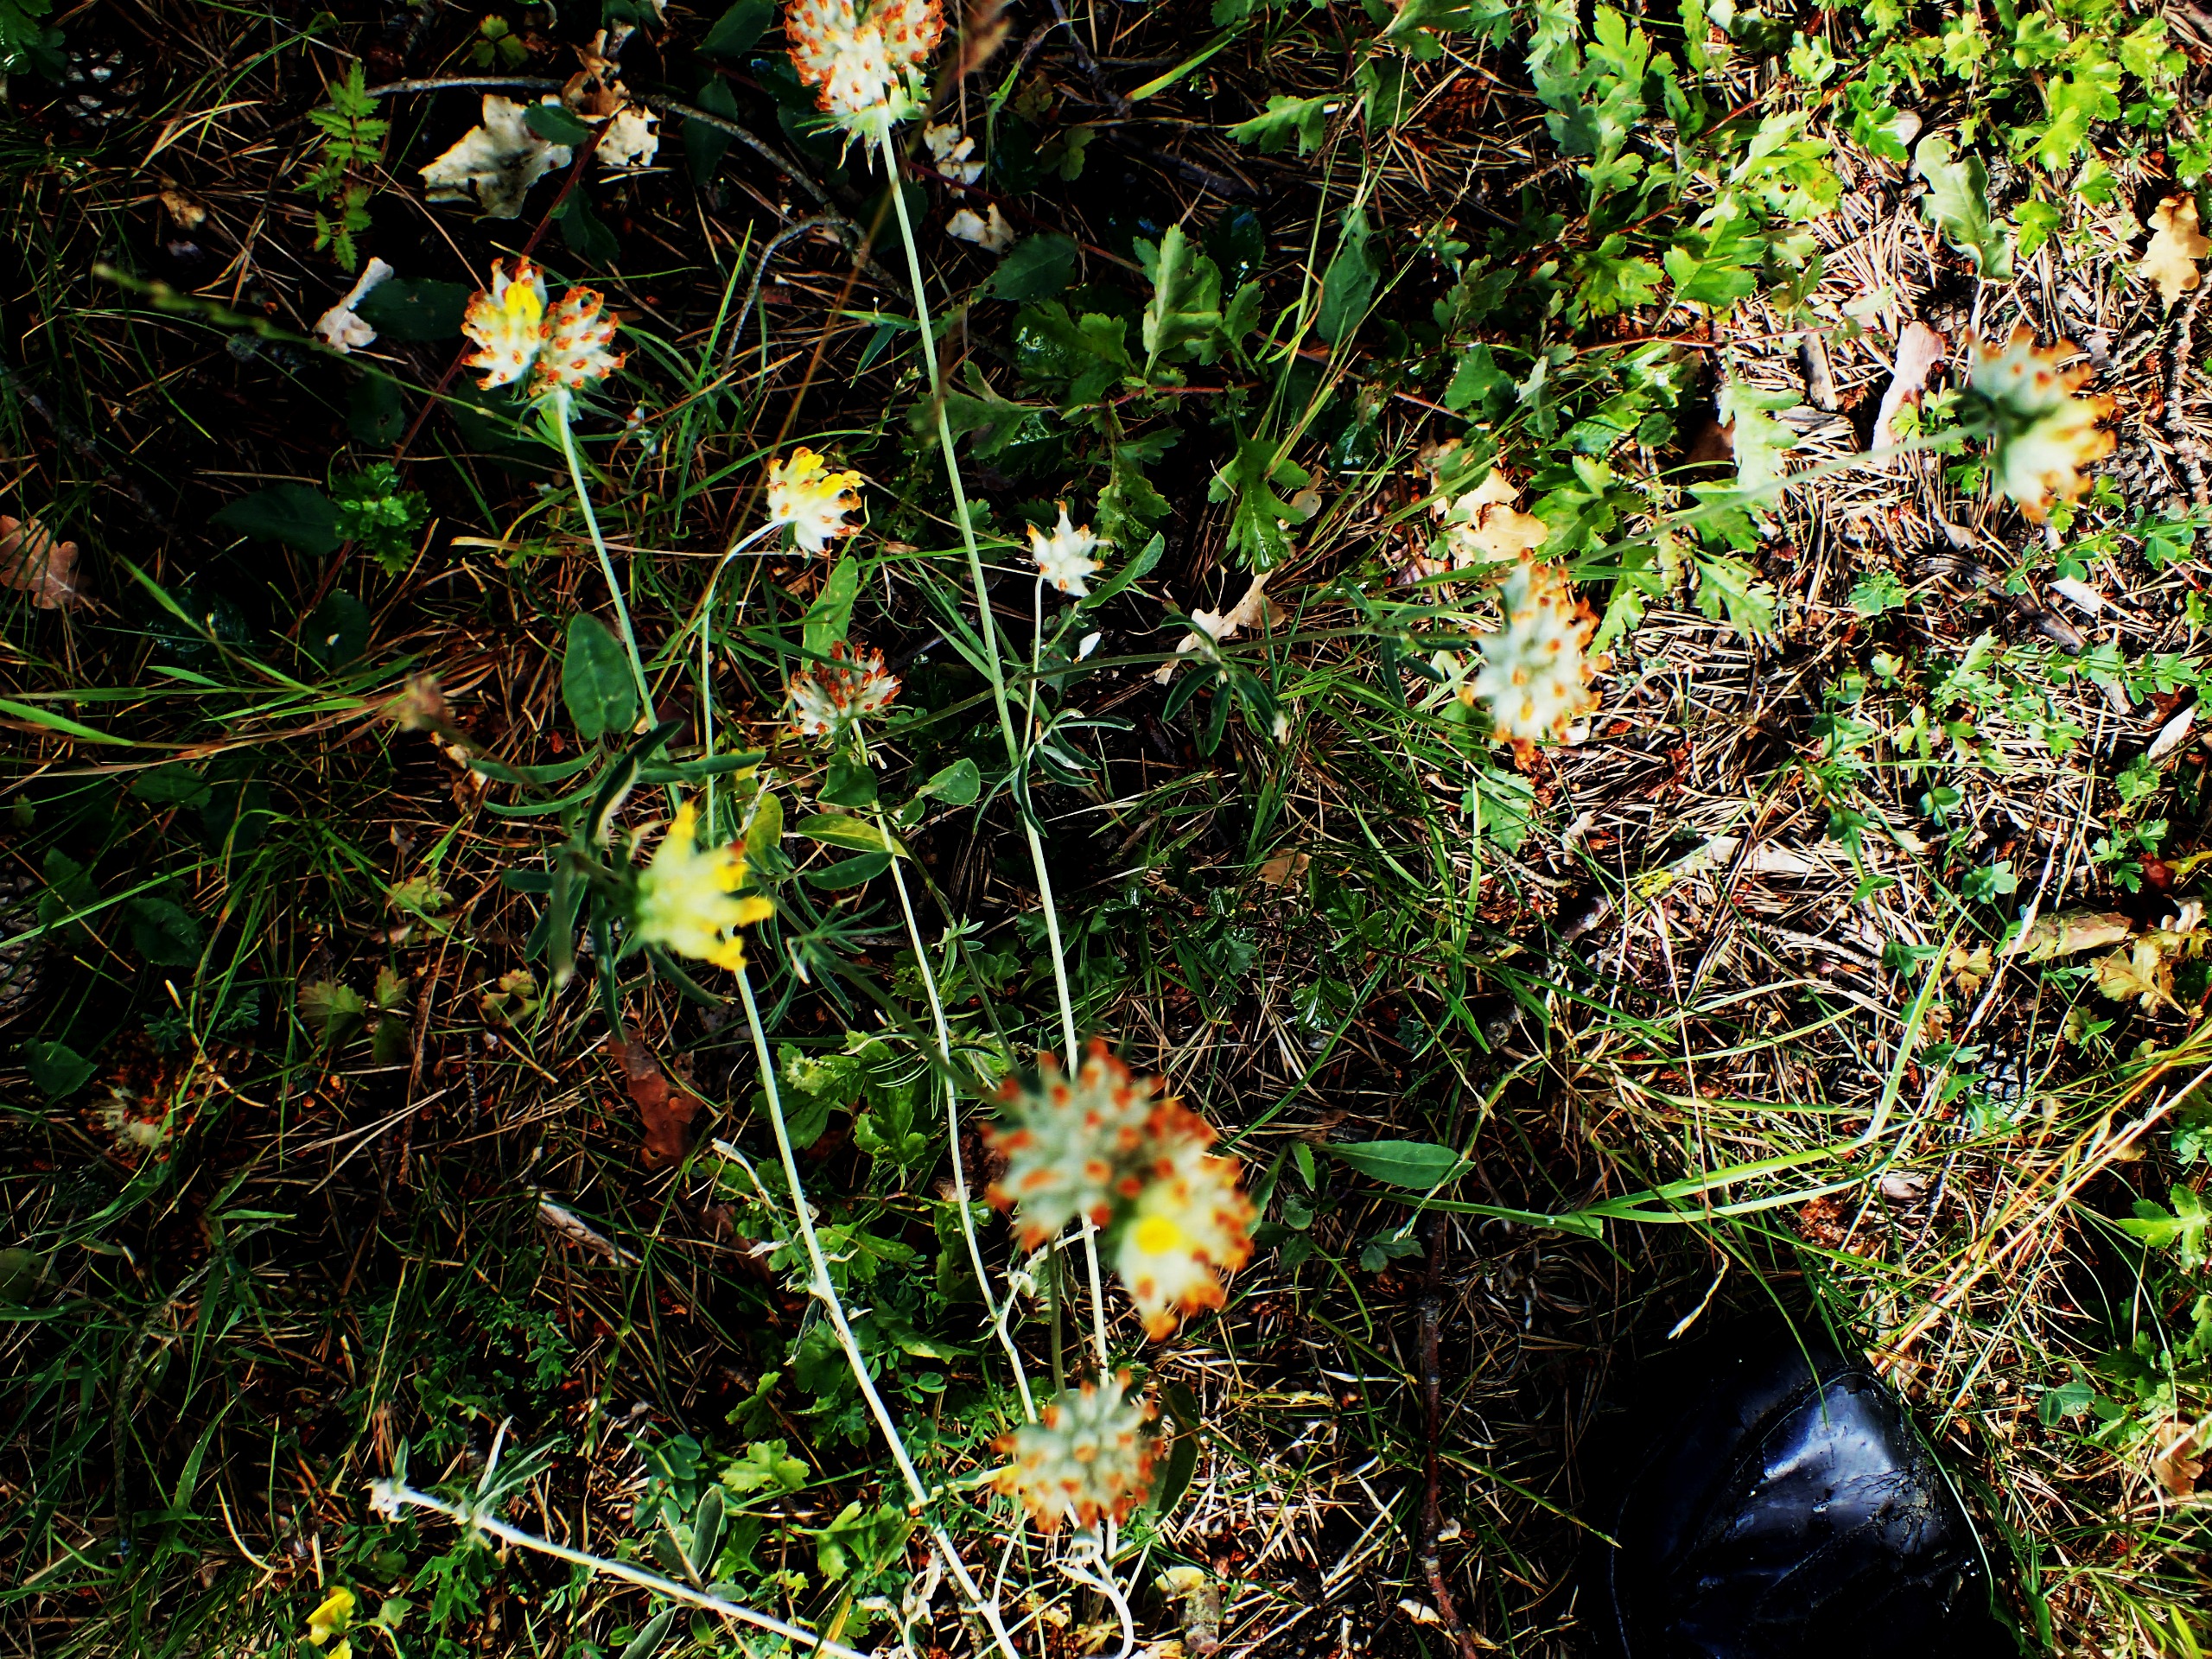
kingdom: Plantae
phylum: Tracheophyta
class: Magnoliopsida
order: Fabales
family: Fabaceae
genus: Anthyllis
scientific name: Anthyllis vulneraria
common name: Rundbælg
